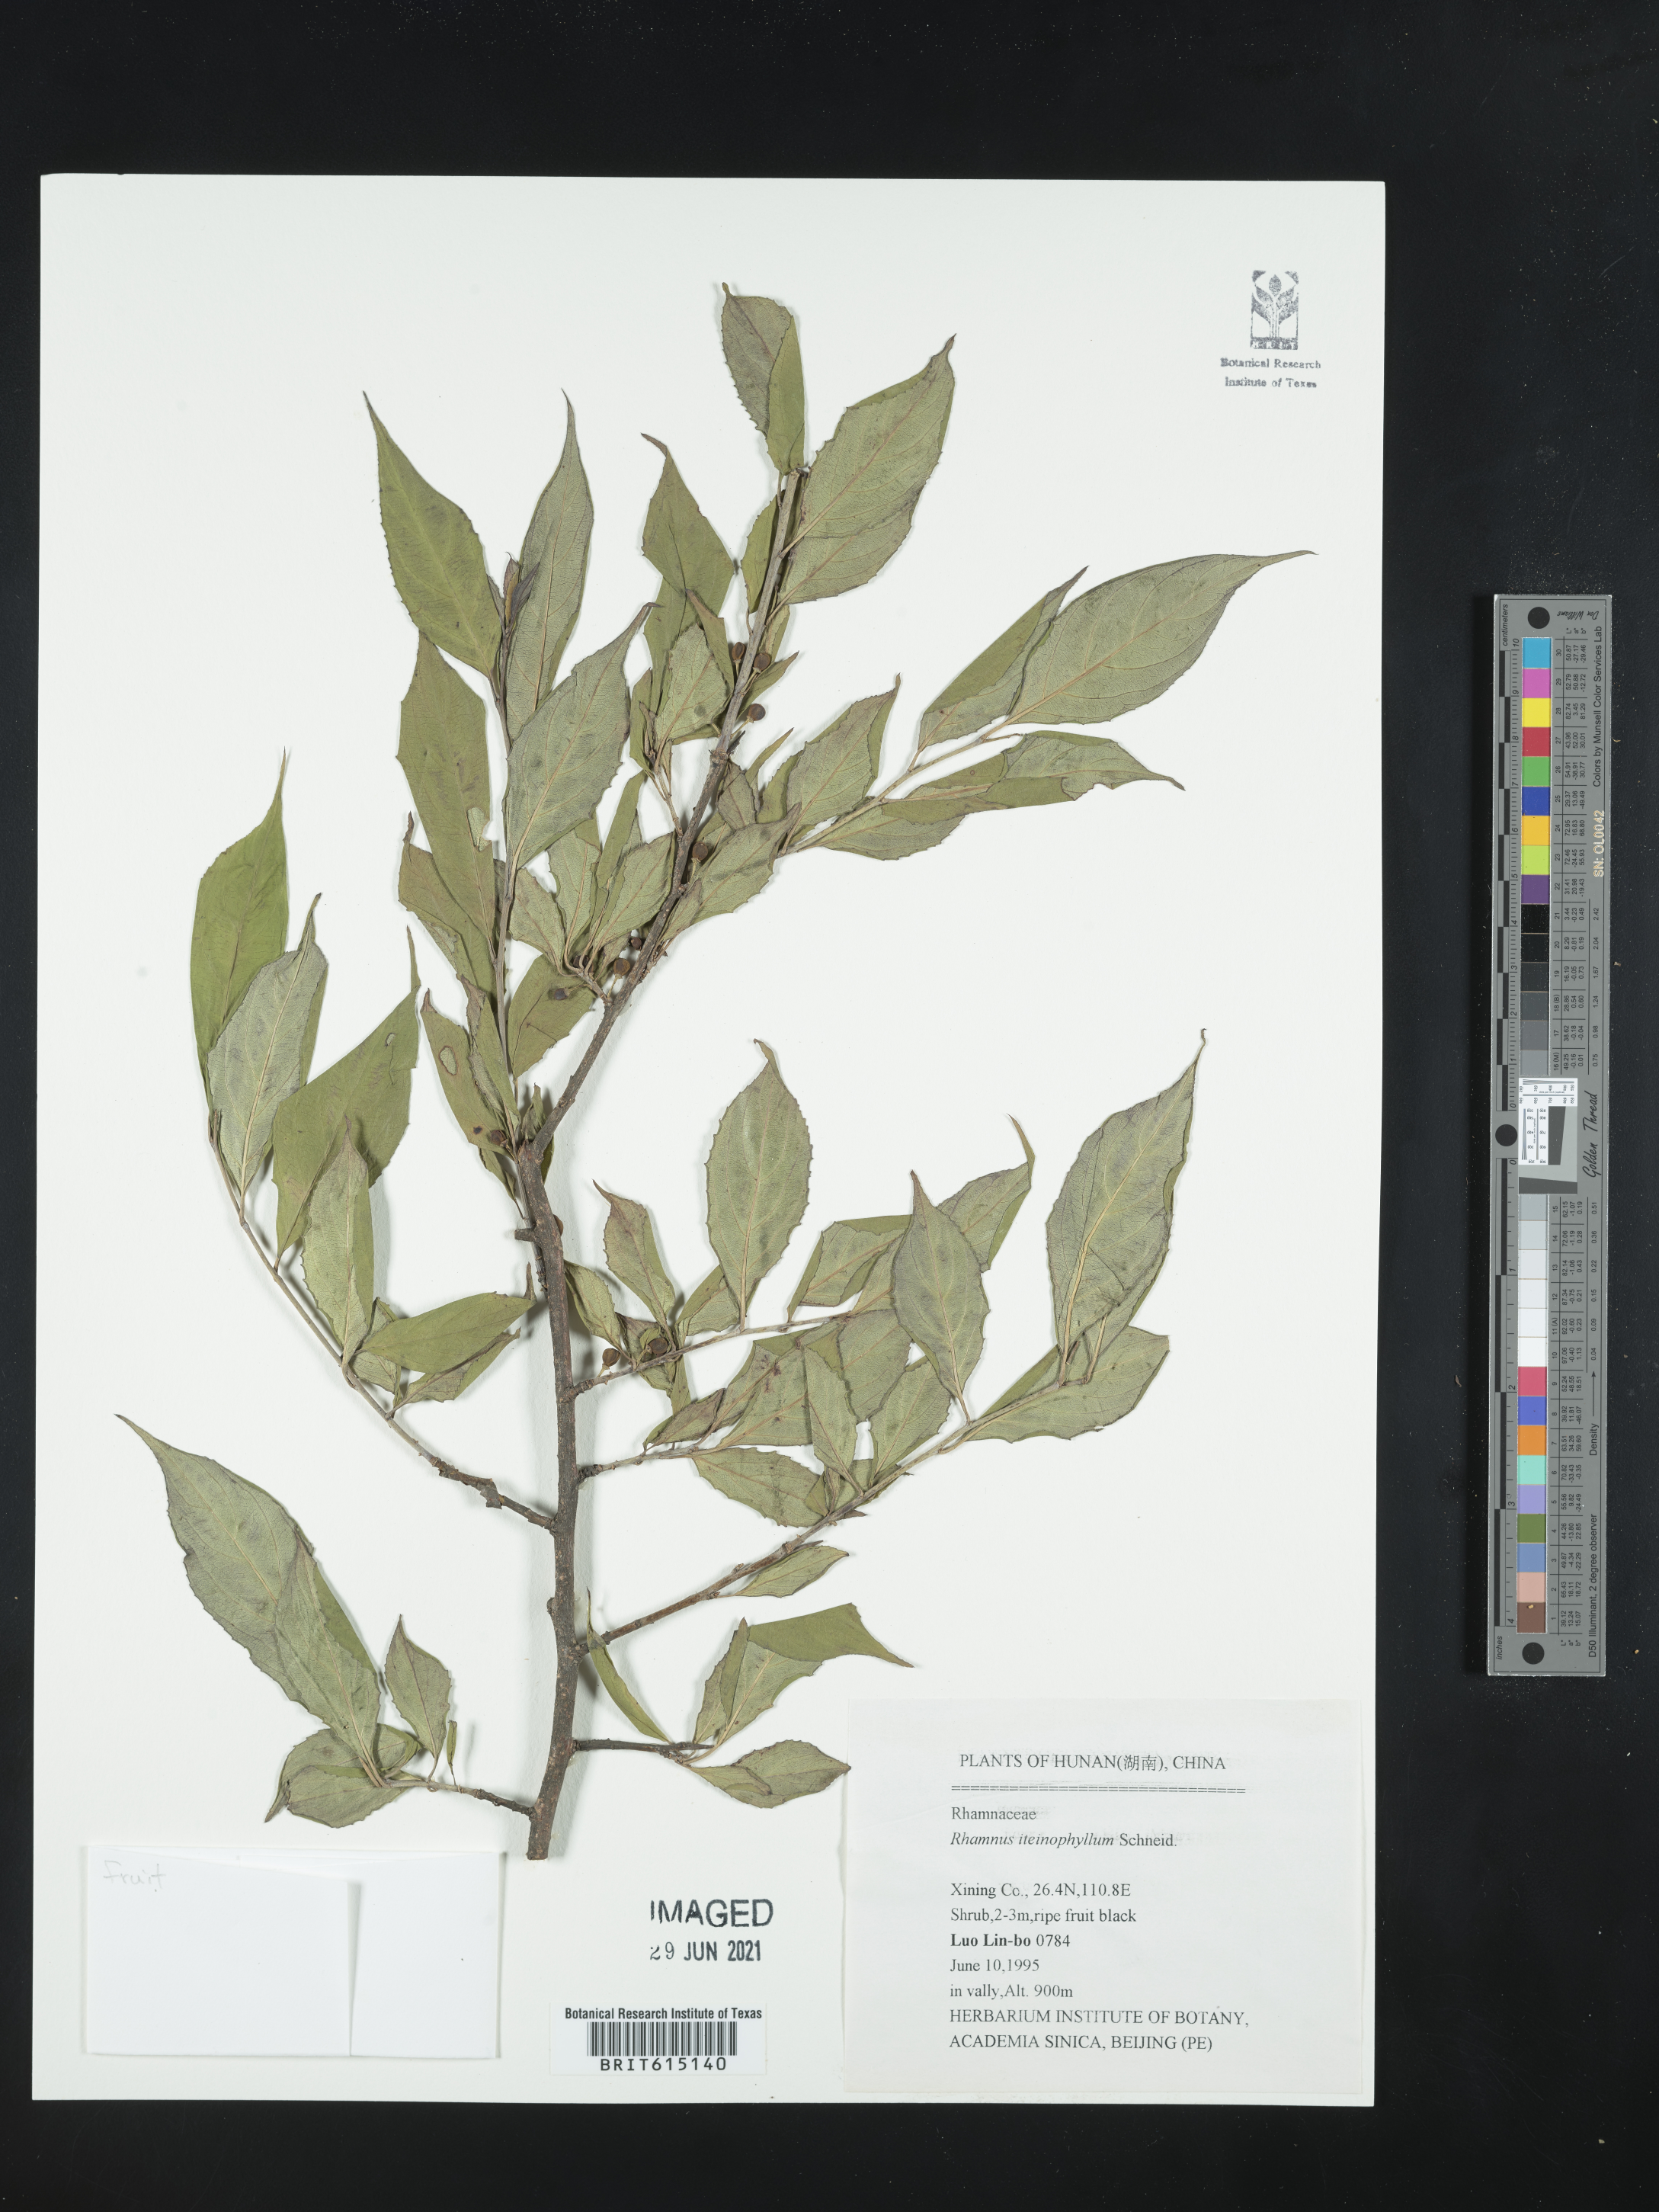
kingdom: Plantae
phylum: Tracheophyta
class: Magnoliopsida
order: Rosales
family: Rhamnaceae
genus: Rhamnus
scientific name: Rhamnus iteinophylla
